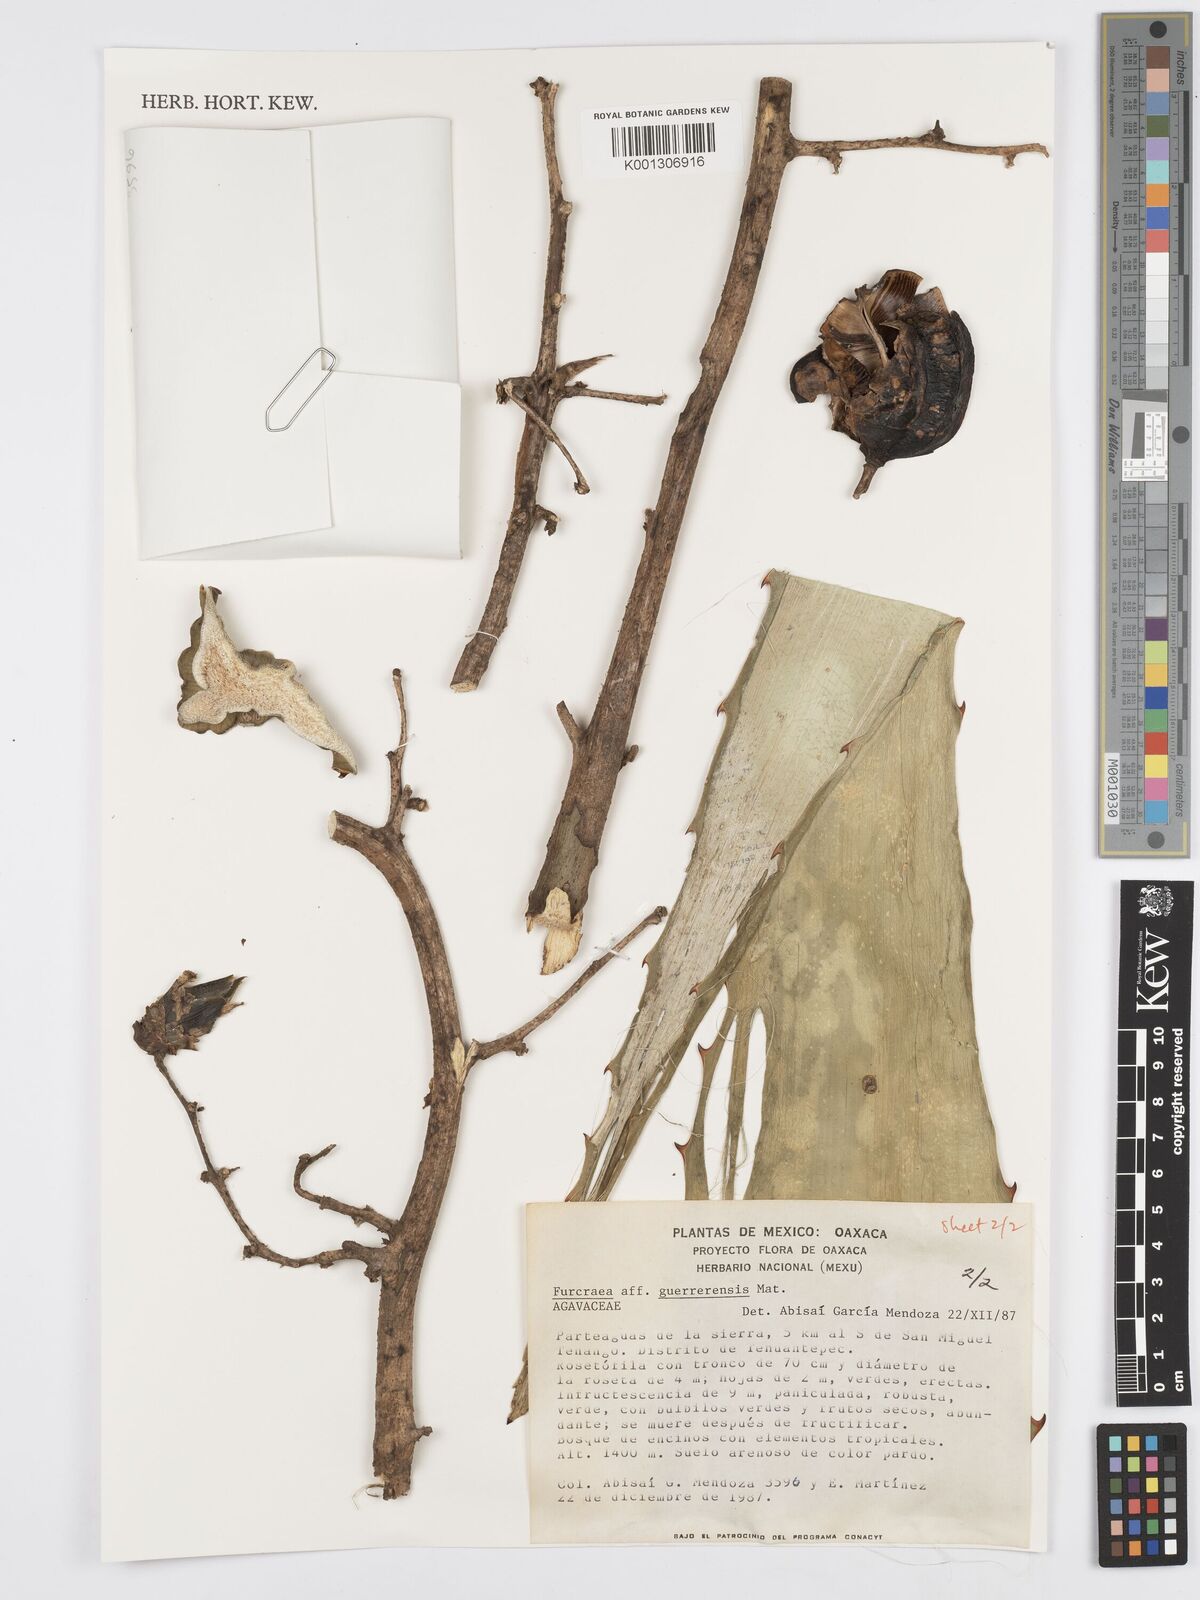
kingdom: Plantae
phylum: Tracheophyta
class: Liliopsida
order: Asparagales
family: Asparagaceae
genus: Furcraea
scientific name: Furcraea guerrerensis
